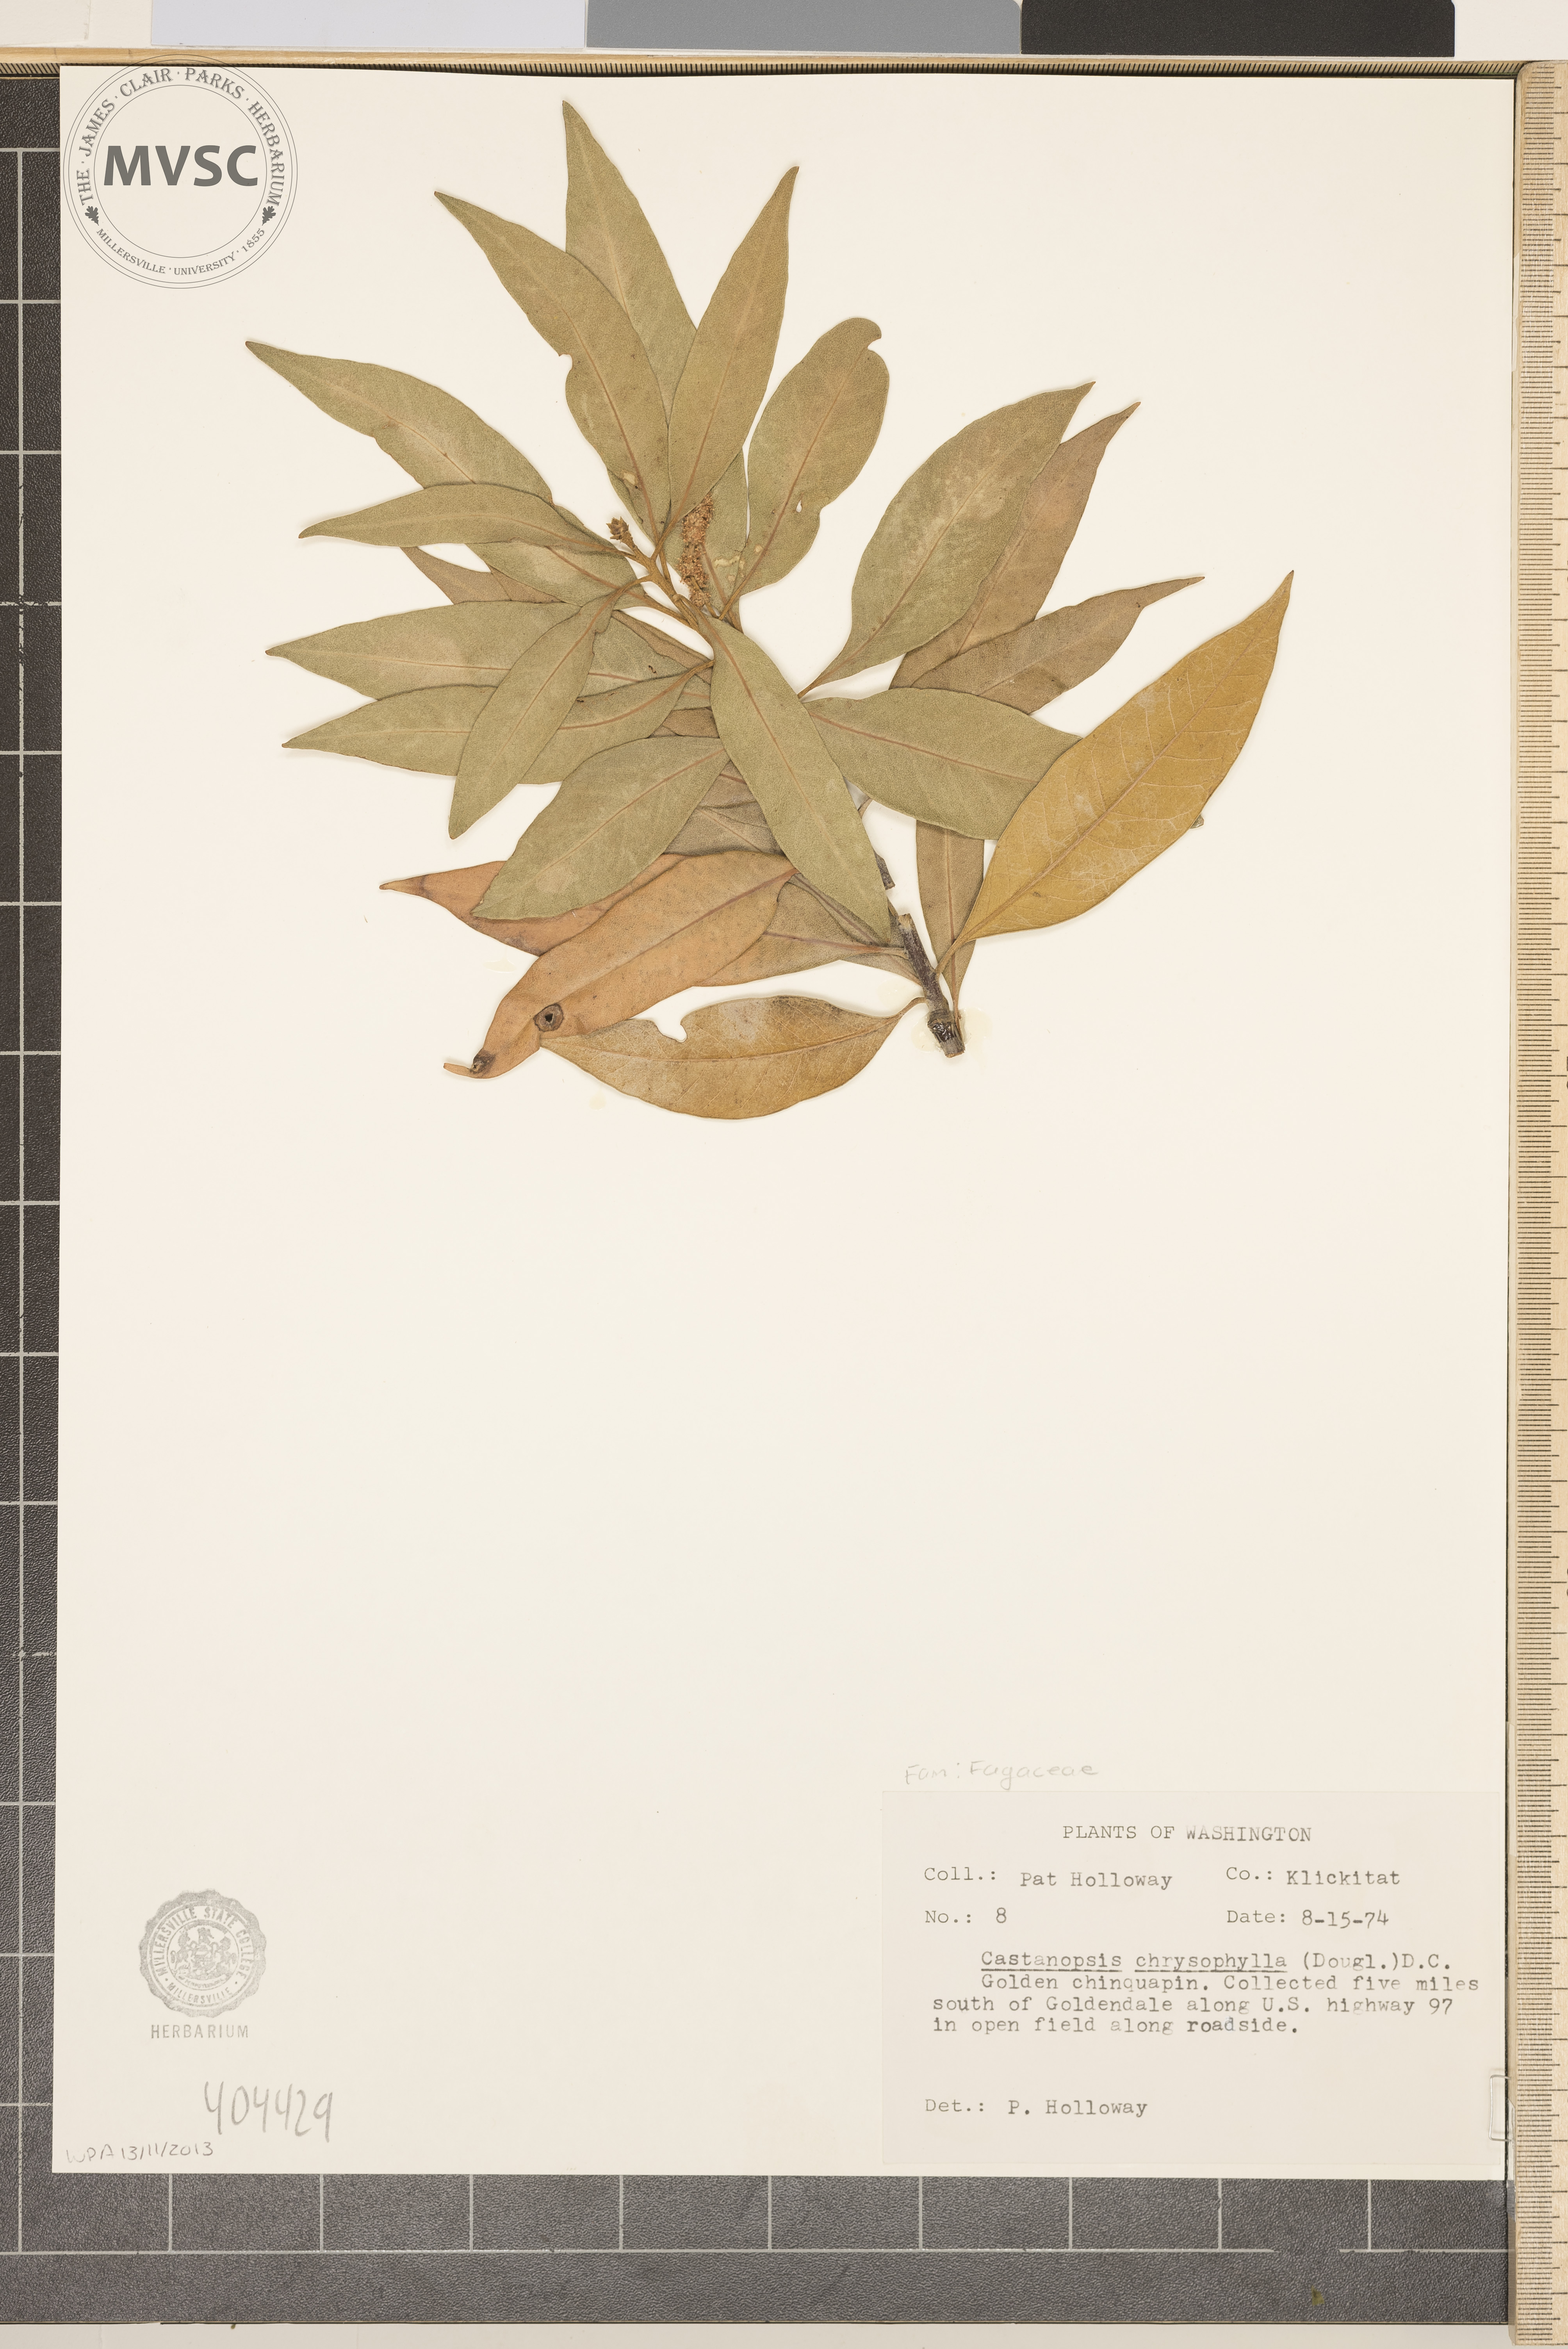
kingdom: Plantae
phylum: Tracheophyta
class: Magnoliopsida
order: Fagales
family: Fagaceae
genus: Chrysolepis
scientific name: Chrysolepis chrysophylla
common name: Giant chinquapin
